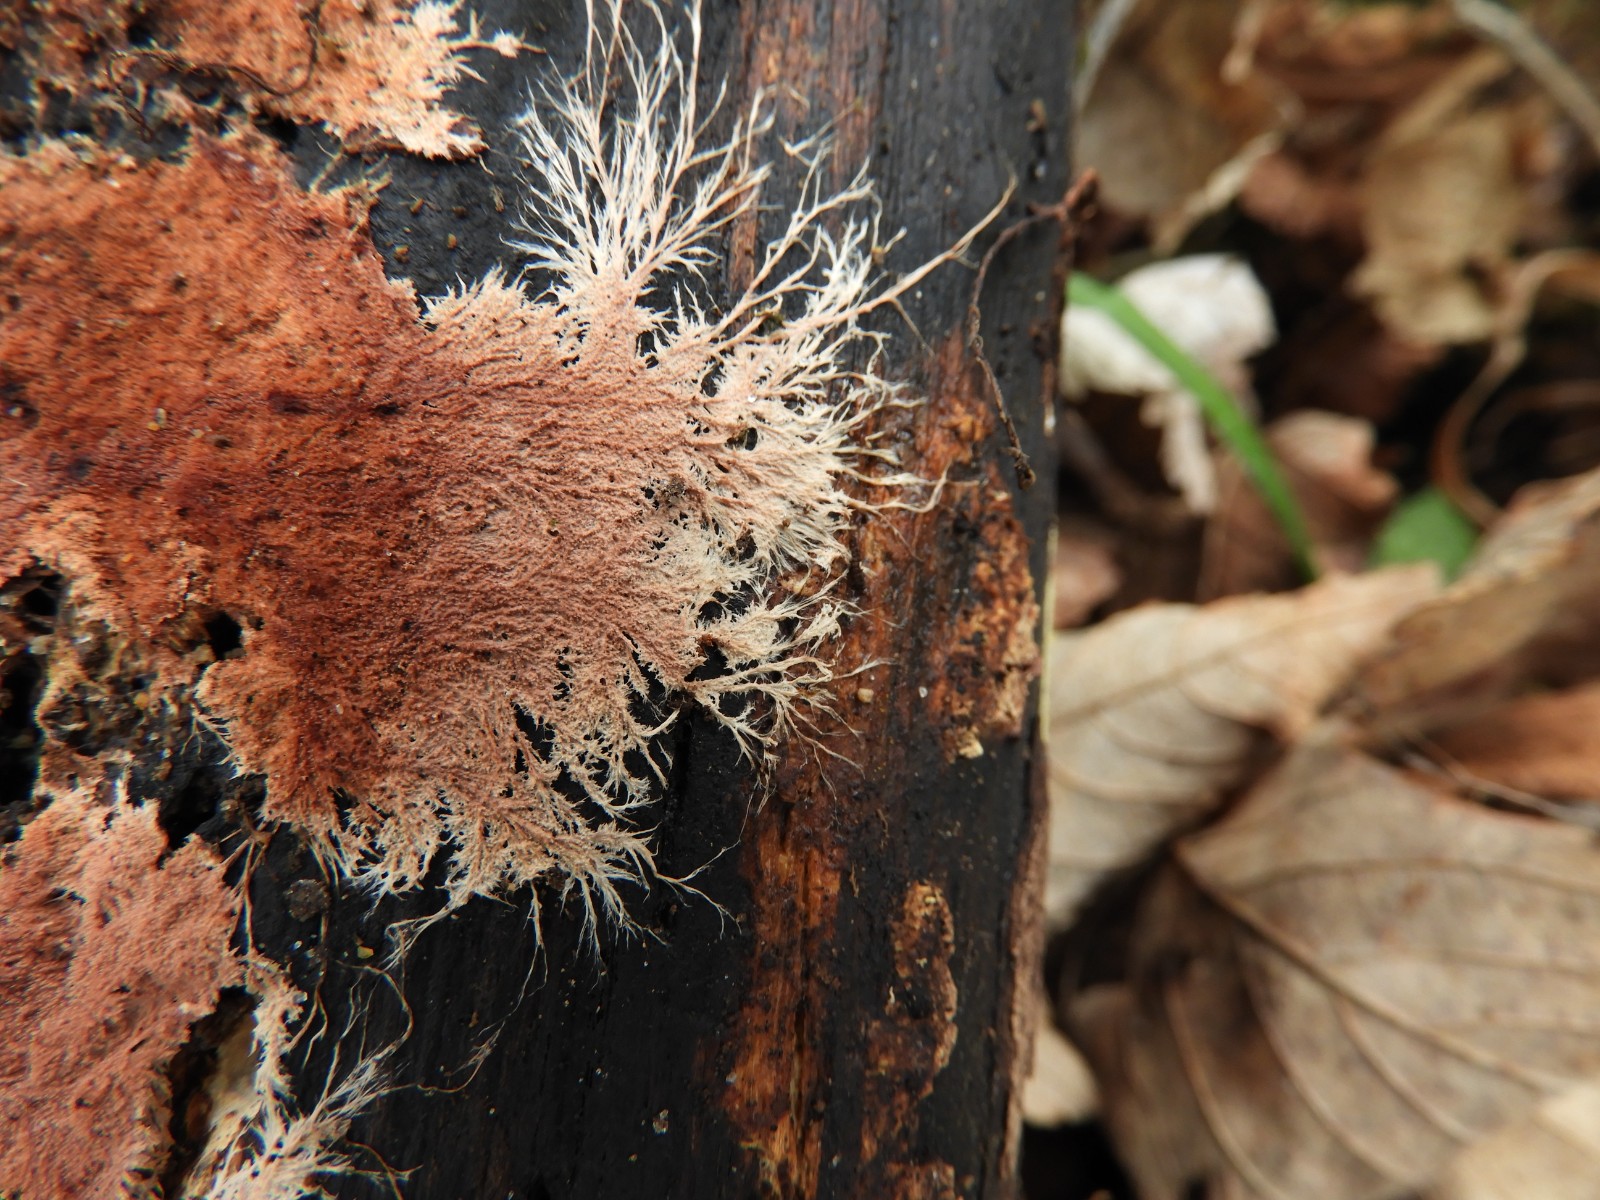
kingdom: Fungi
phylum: Basidiomycota
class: Agaricomycetes
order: Polyporales
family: Steccherinaceae
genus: Steccherinum
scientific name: Steccherinum fimbriatum
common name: trådet skønpig
